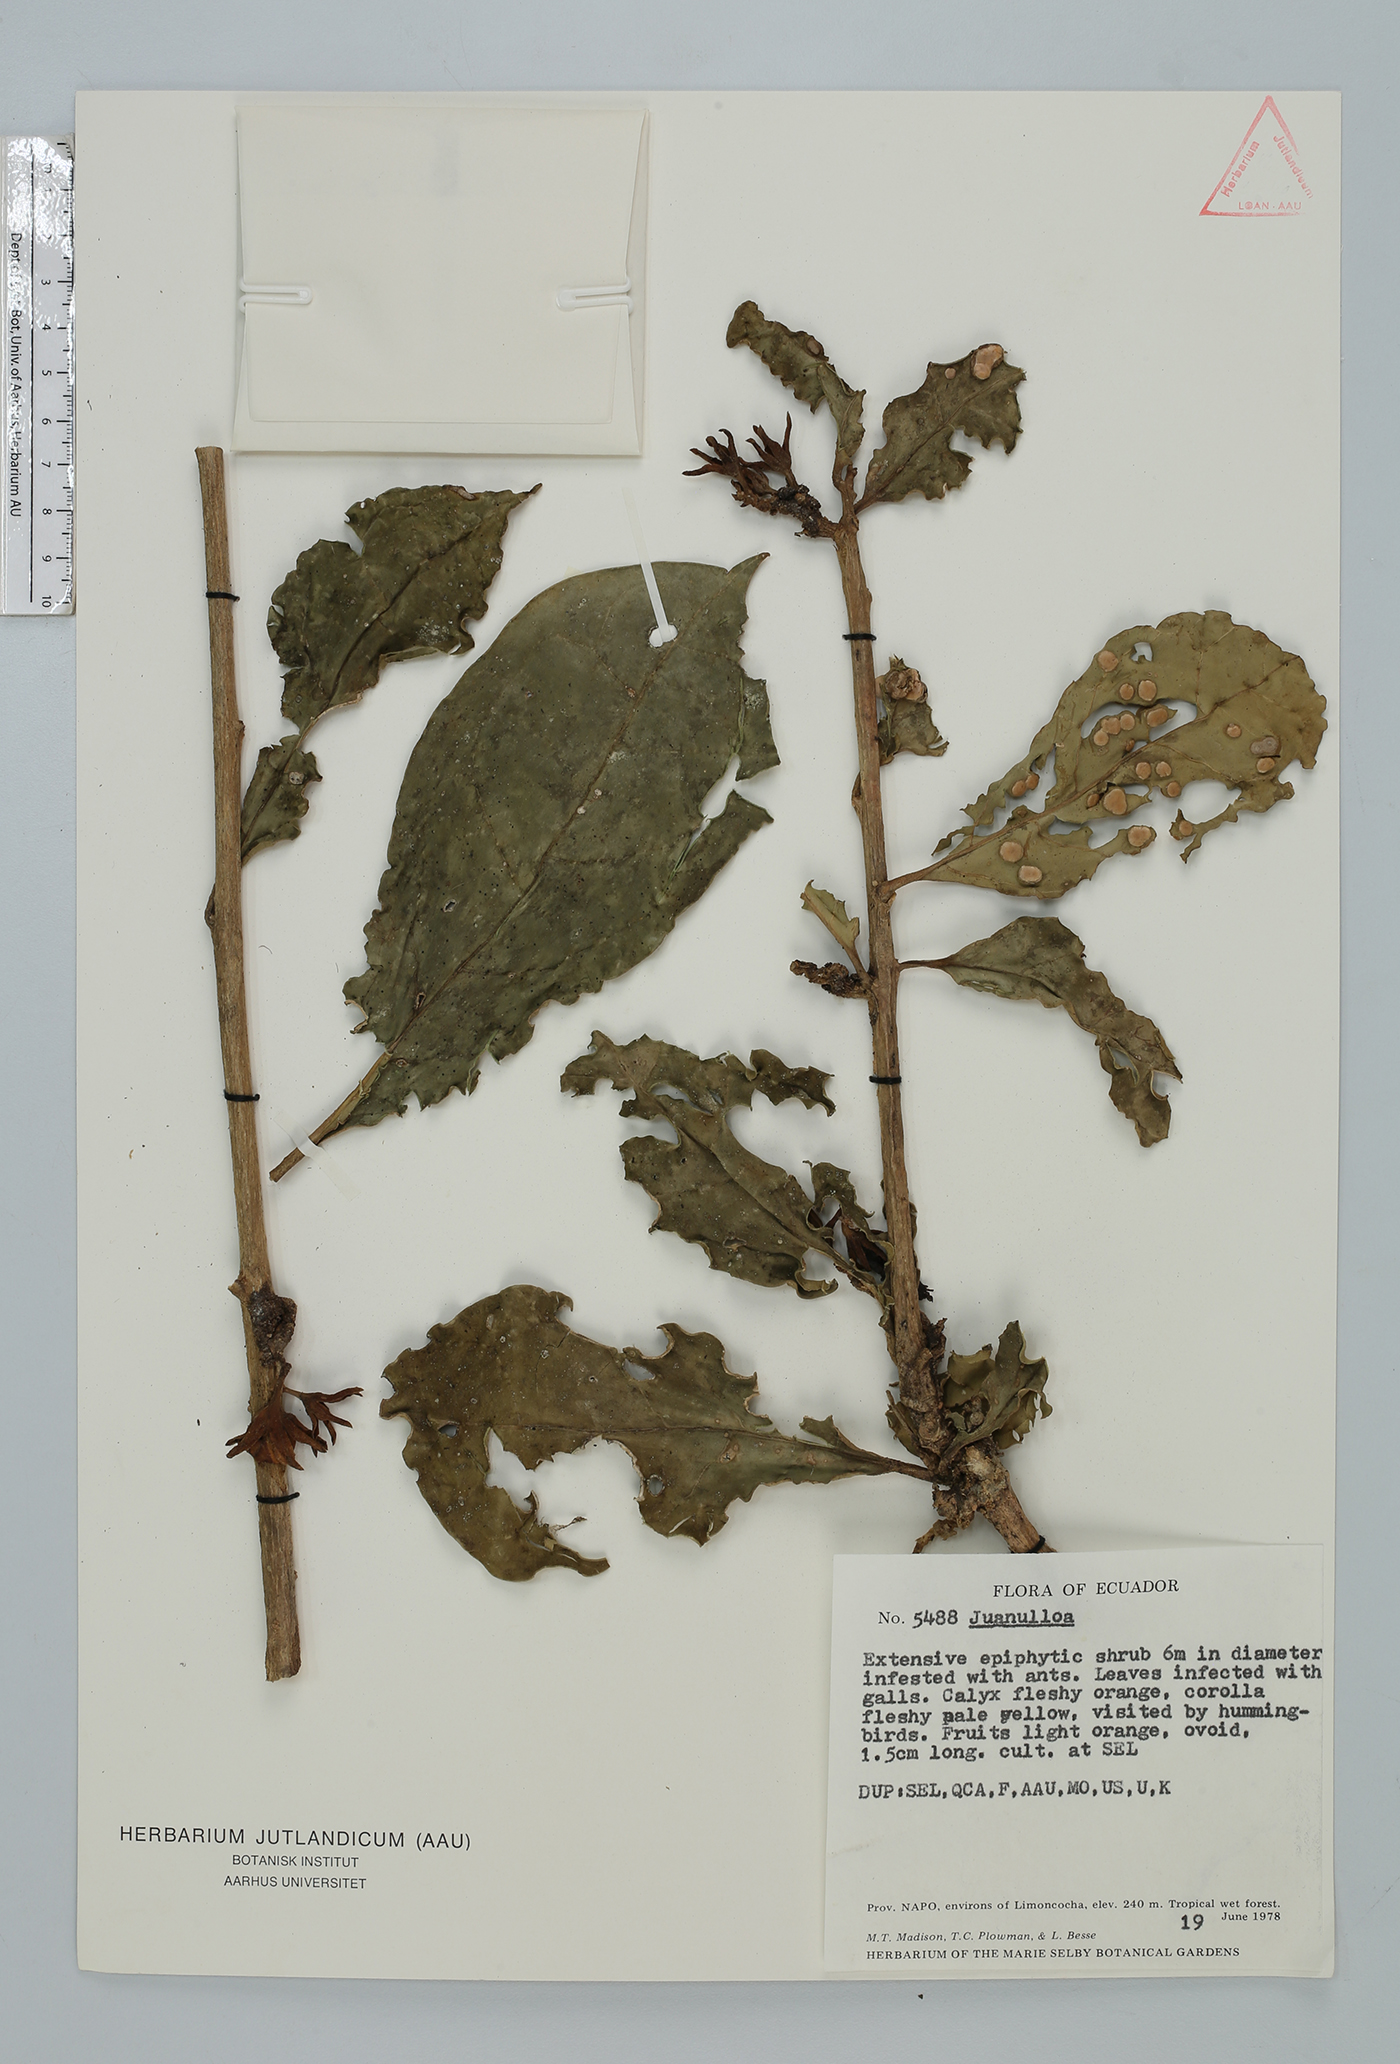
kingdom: Plantae
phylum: Tracheophyta
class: Magnoliopsida
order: Solanales
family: Solanaceae
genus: Hawkesiophyton
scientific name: Hawkesiophyton ochraceum
